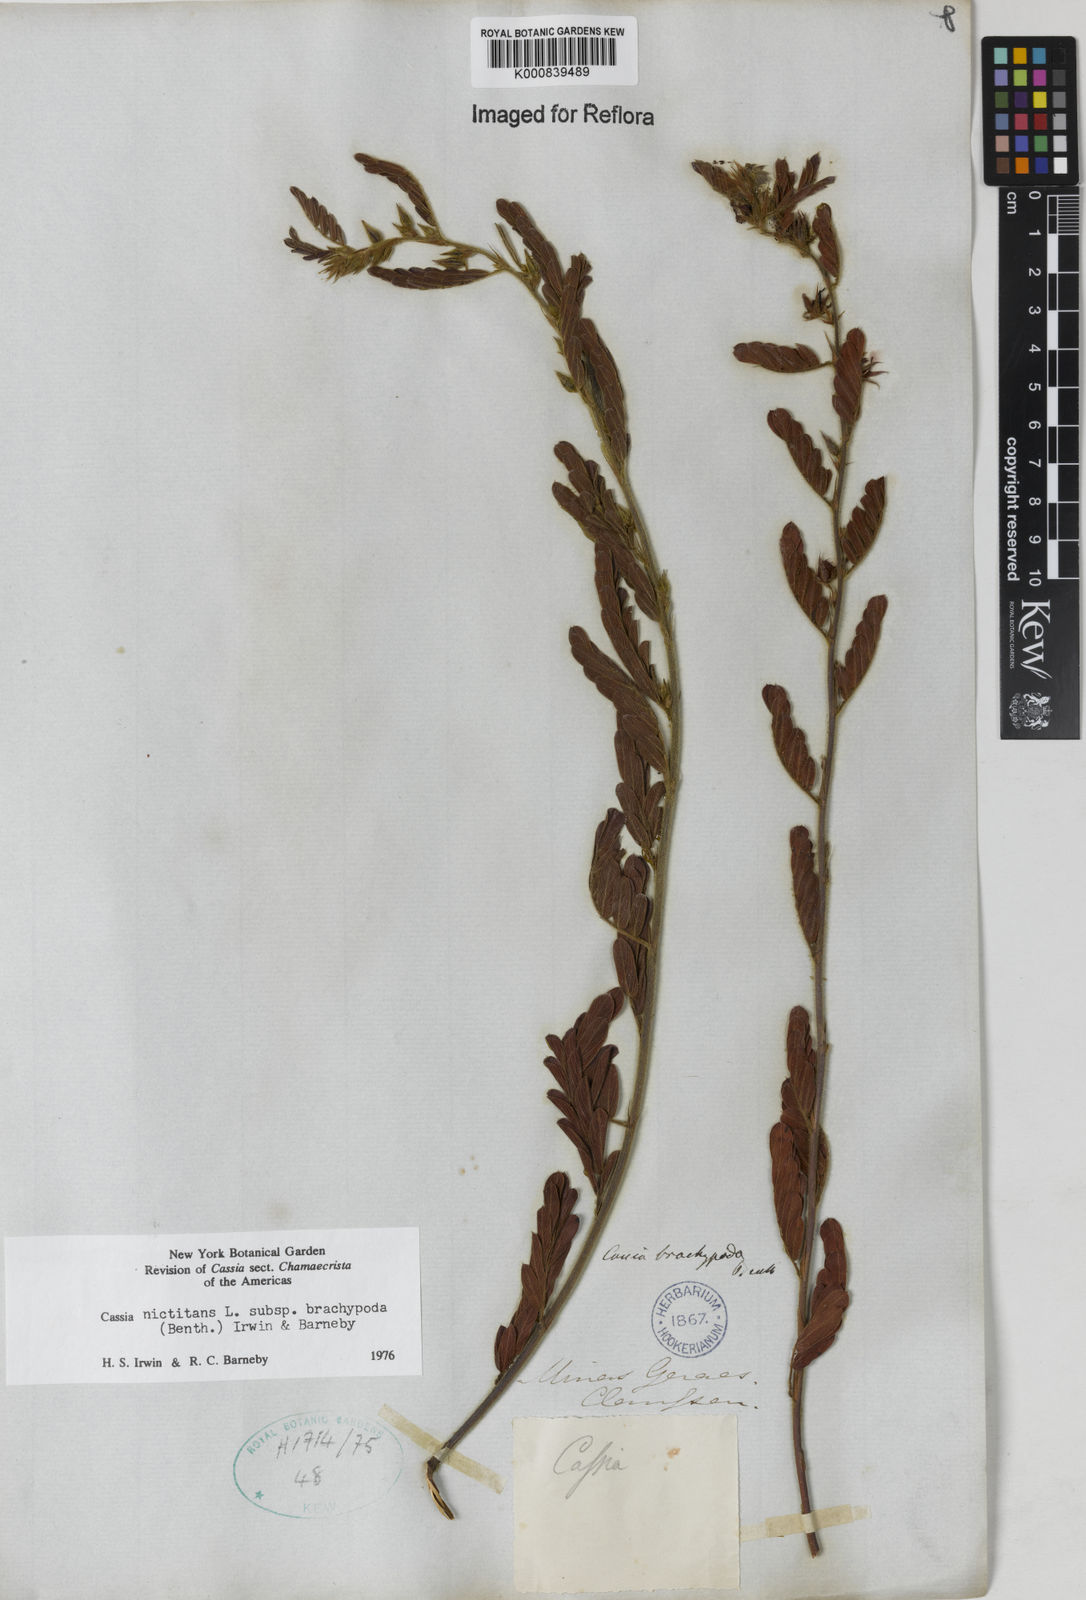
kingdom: Plantae
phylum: Tracheophyta
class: Magnoliopsida
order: Fabales
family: Fabaceae
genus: Chamaecrista
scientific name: Chamaecrista nictitans
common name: Sensitive cassia
